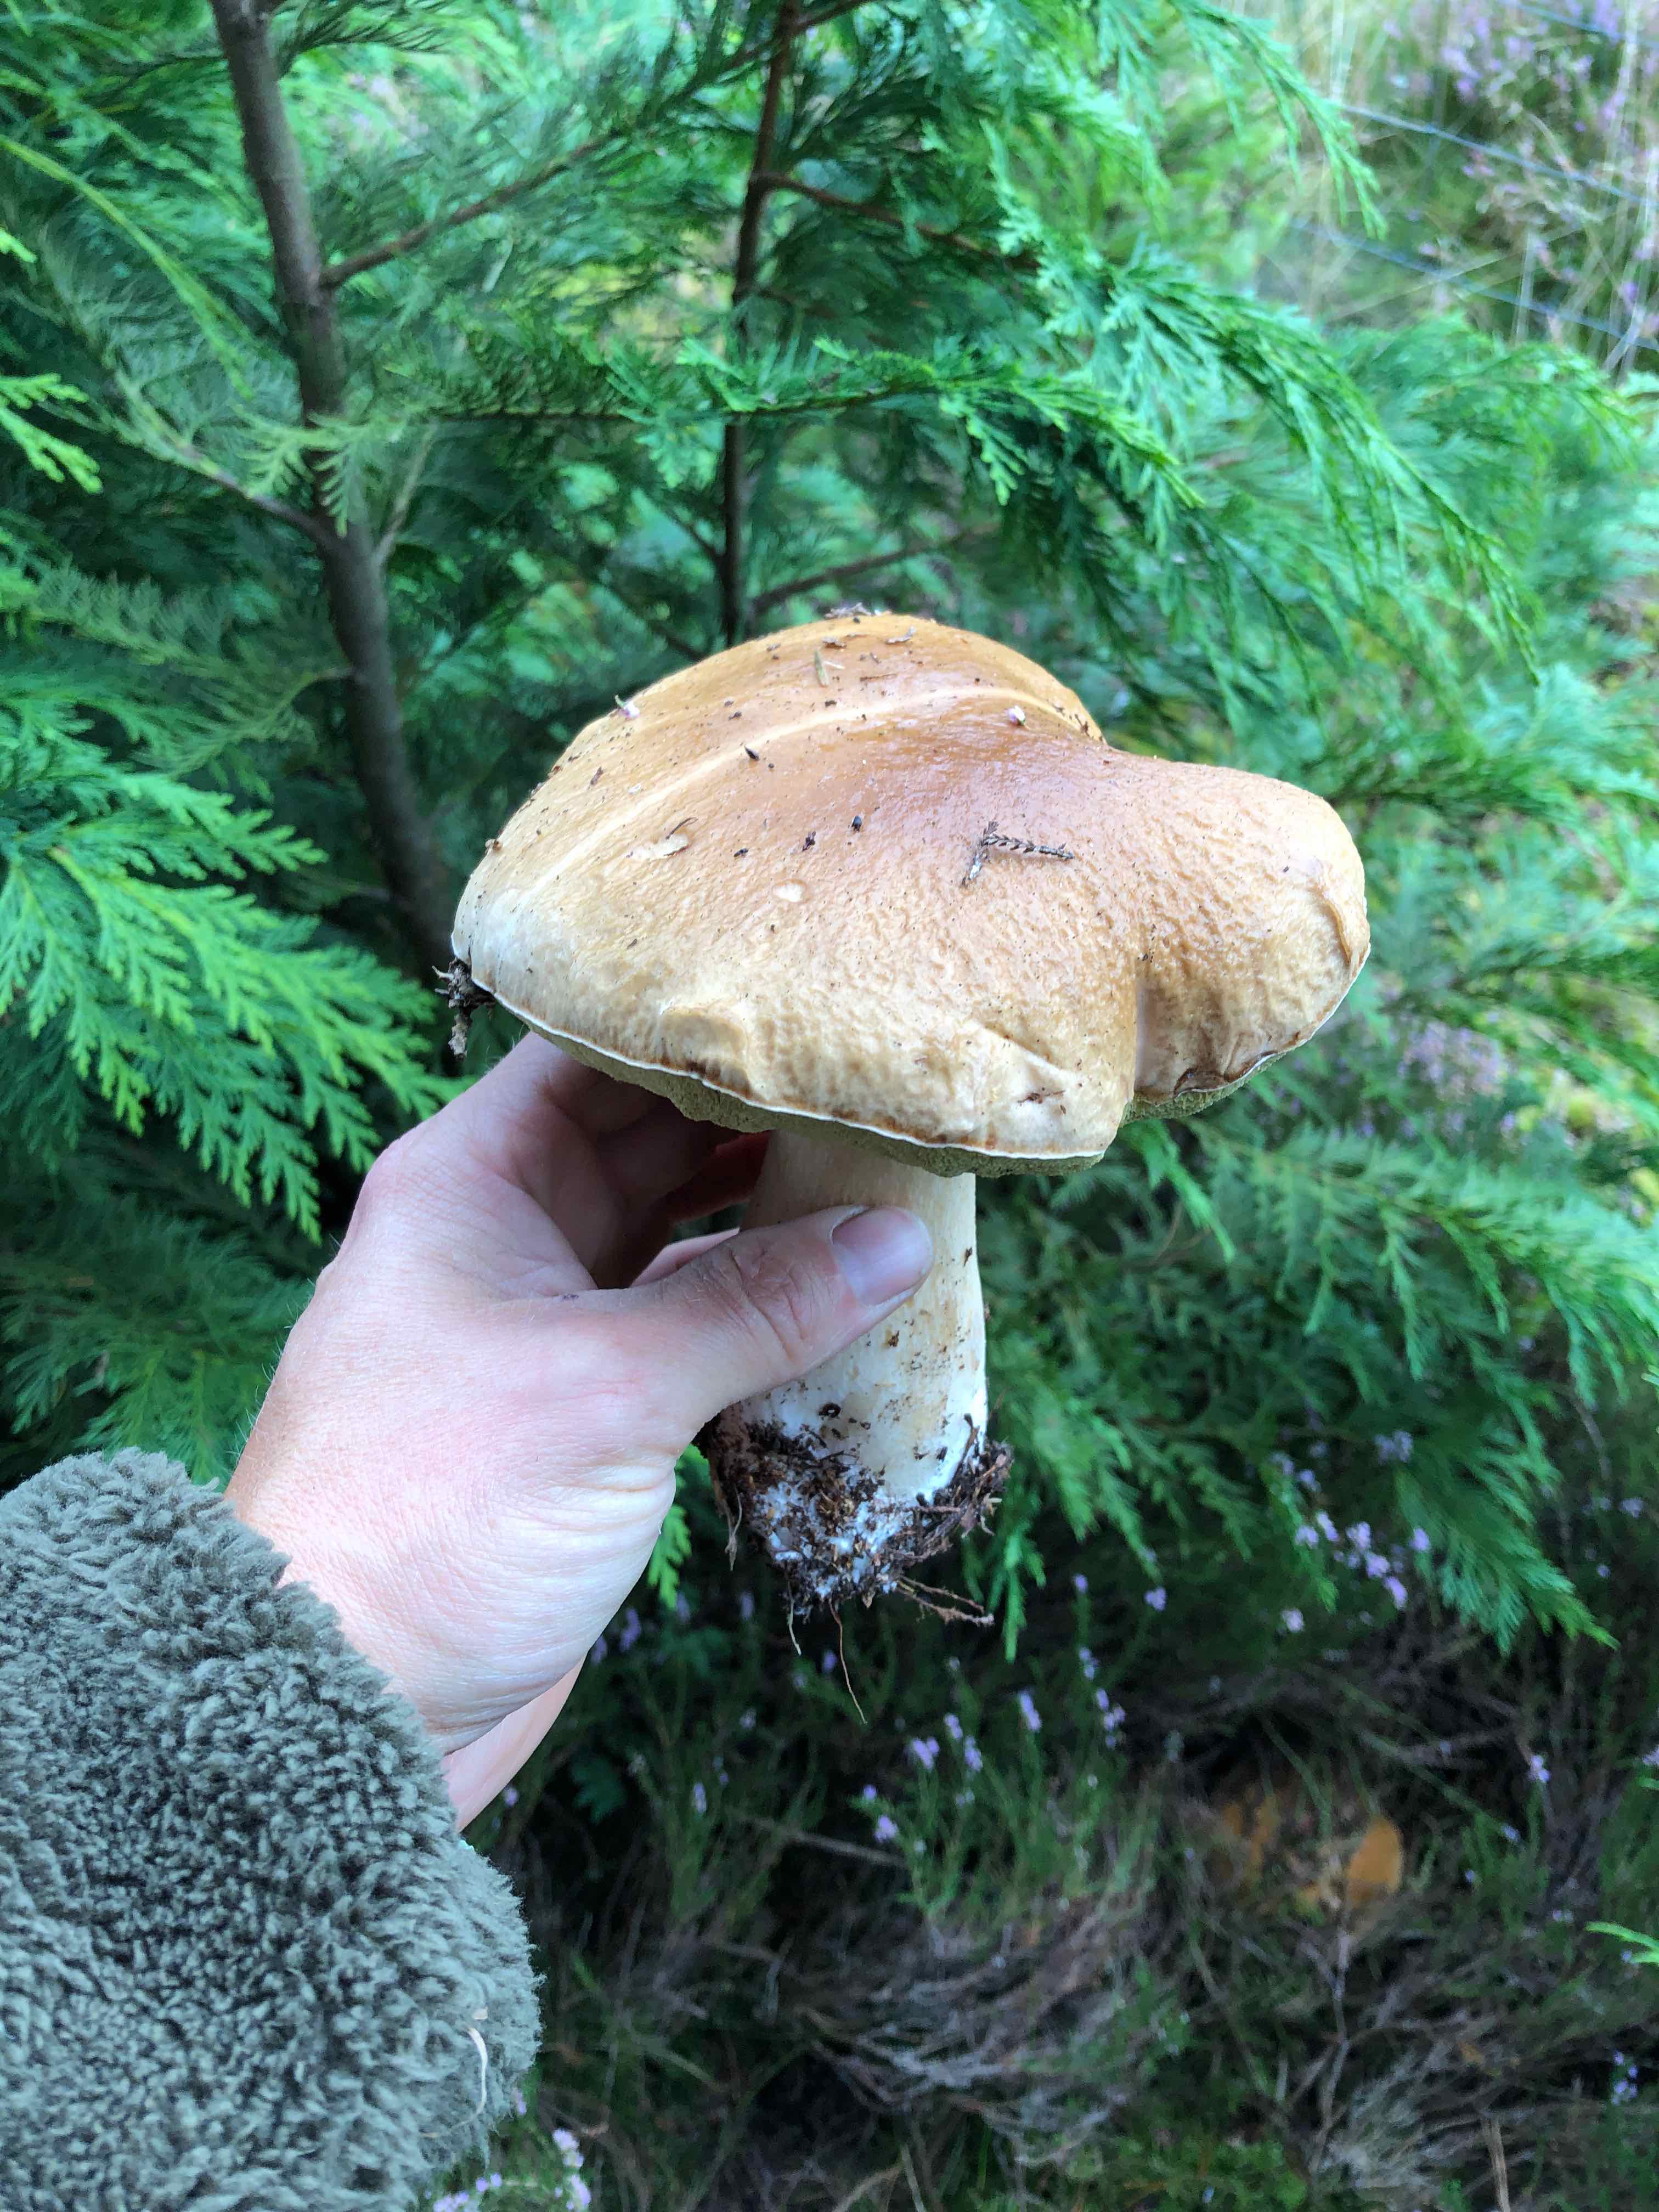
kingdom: Fungi
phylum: Basidiomycota
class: Agaricomycetes
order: Boletales
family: Boletaceae
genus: Boletus
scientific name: Boletus edulis
